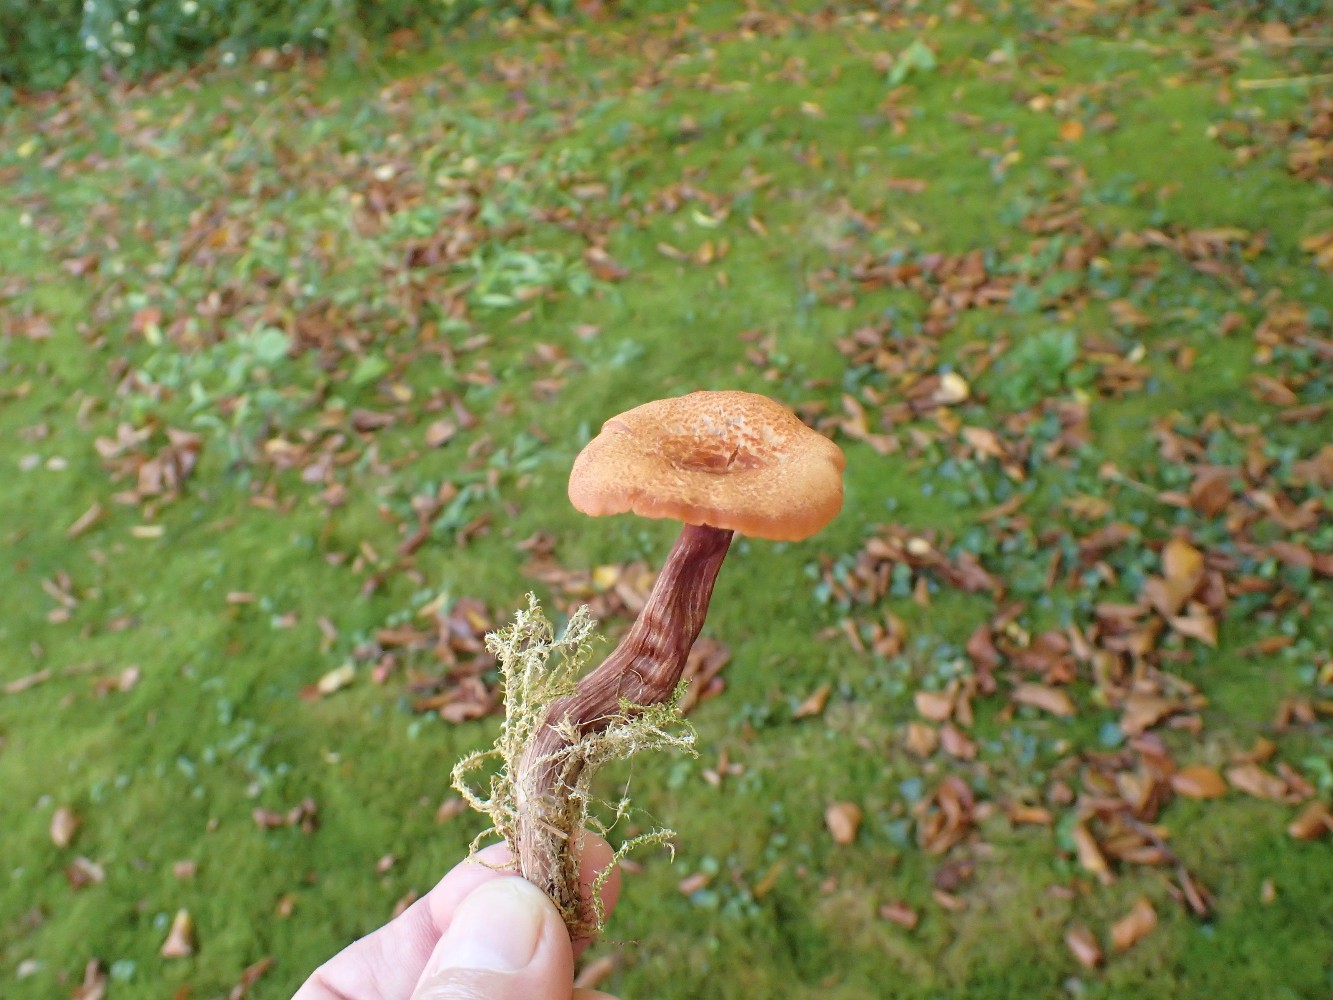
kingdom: Fungi
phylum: Basidiomycota
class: Agaricomycetes
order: Agaricales
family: Hydnangiaceae
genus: Laccaria
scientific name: Laccaria proxima
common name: stor ametysthat
